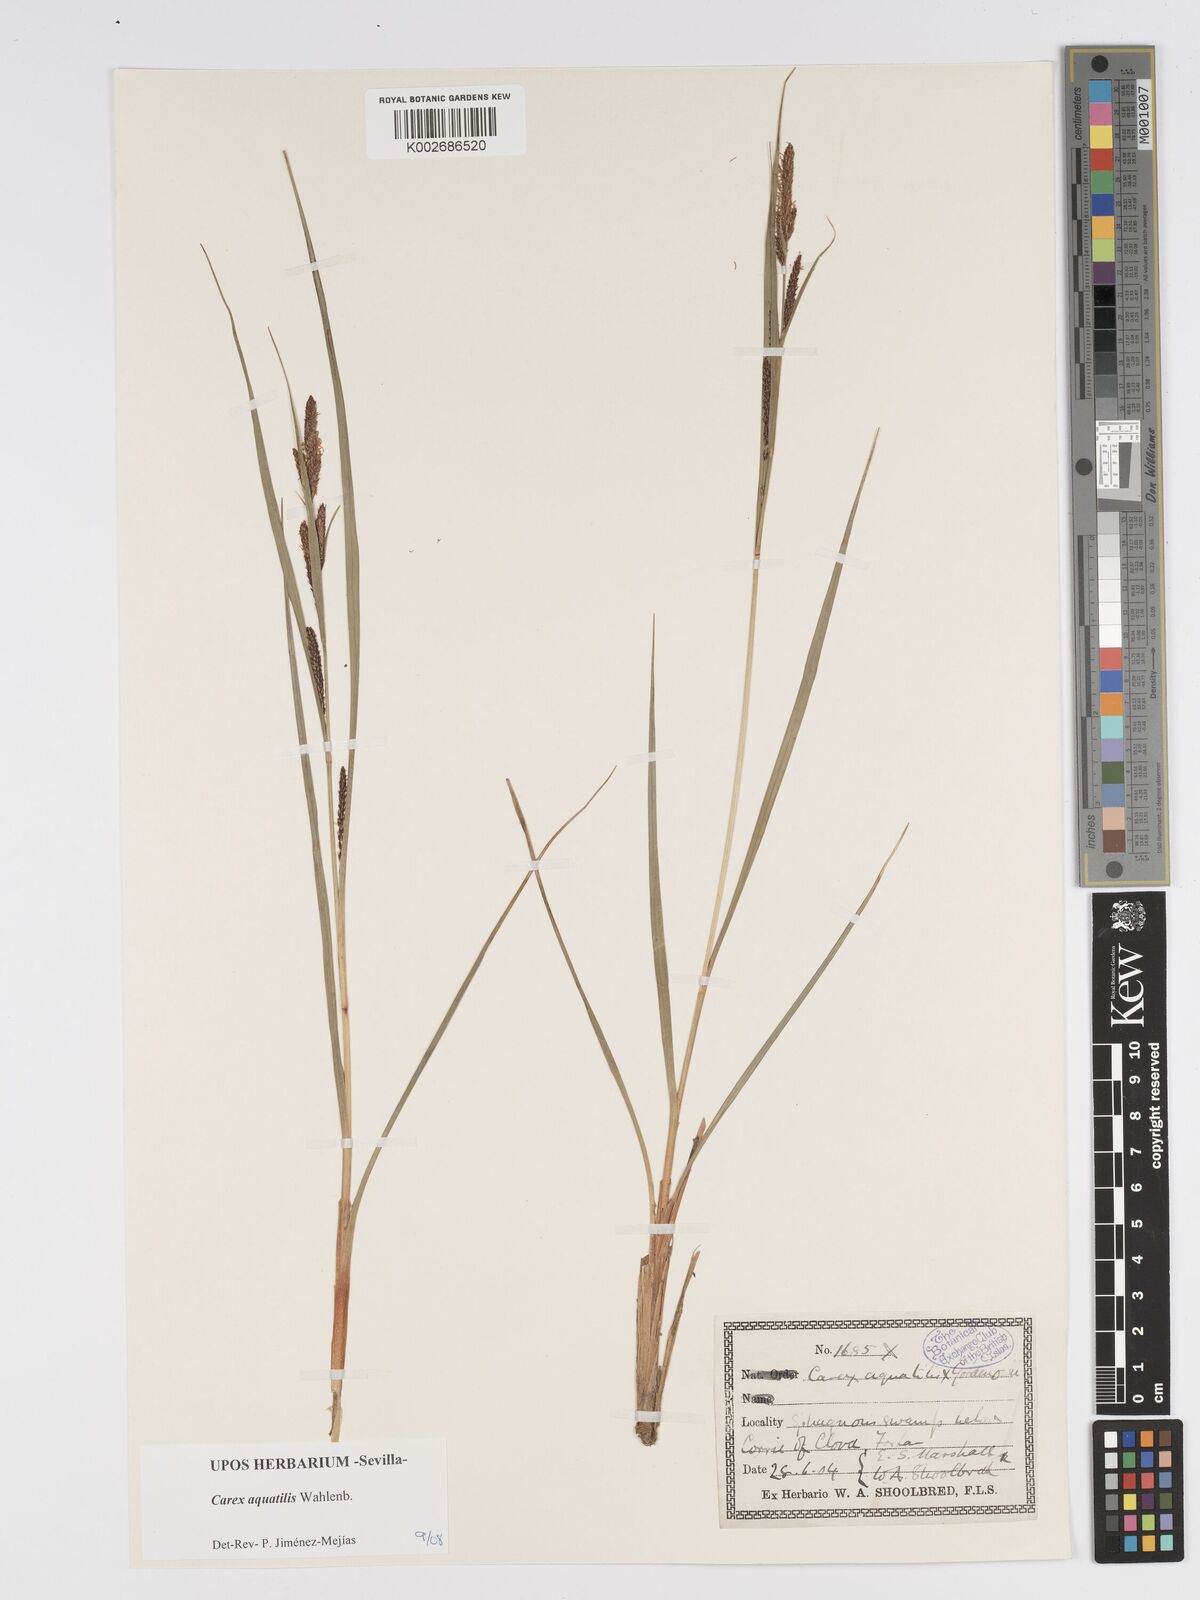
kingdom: Plantae
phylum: Tracheophyta
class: Liliopsida
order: Poales
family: Cyperaceae
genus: Carex
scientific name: Carex aquatilis
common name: Water sedge
